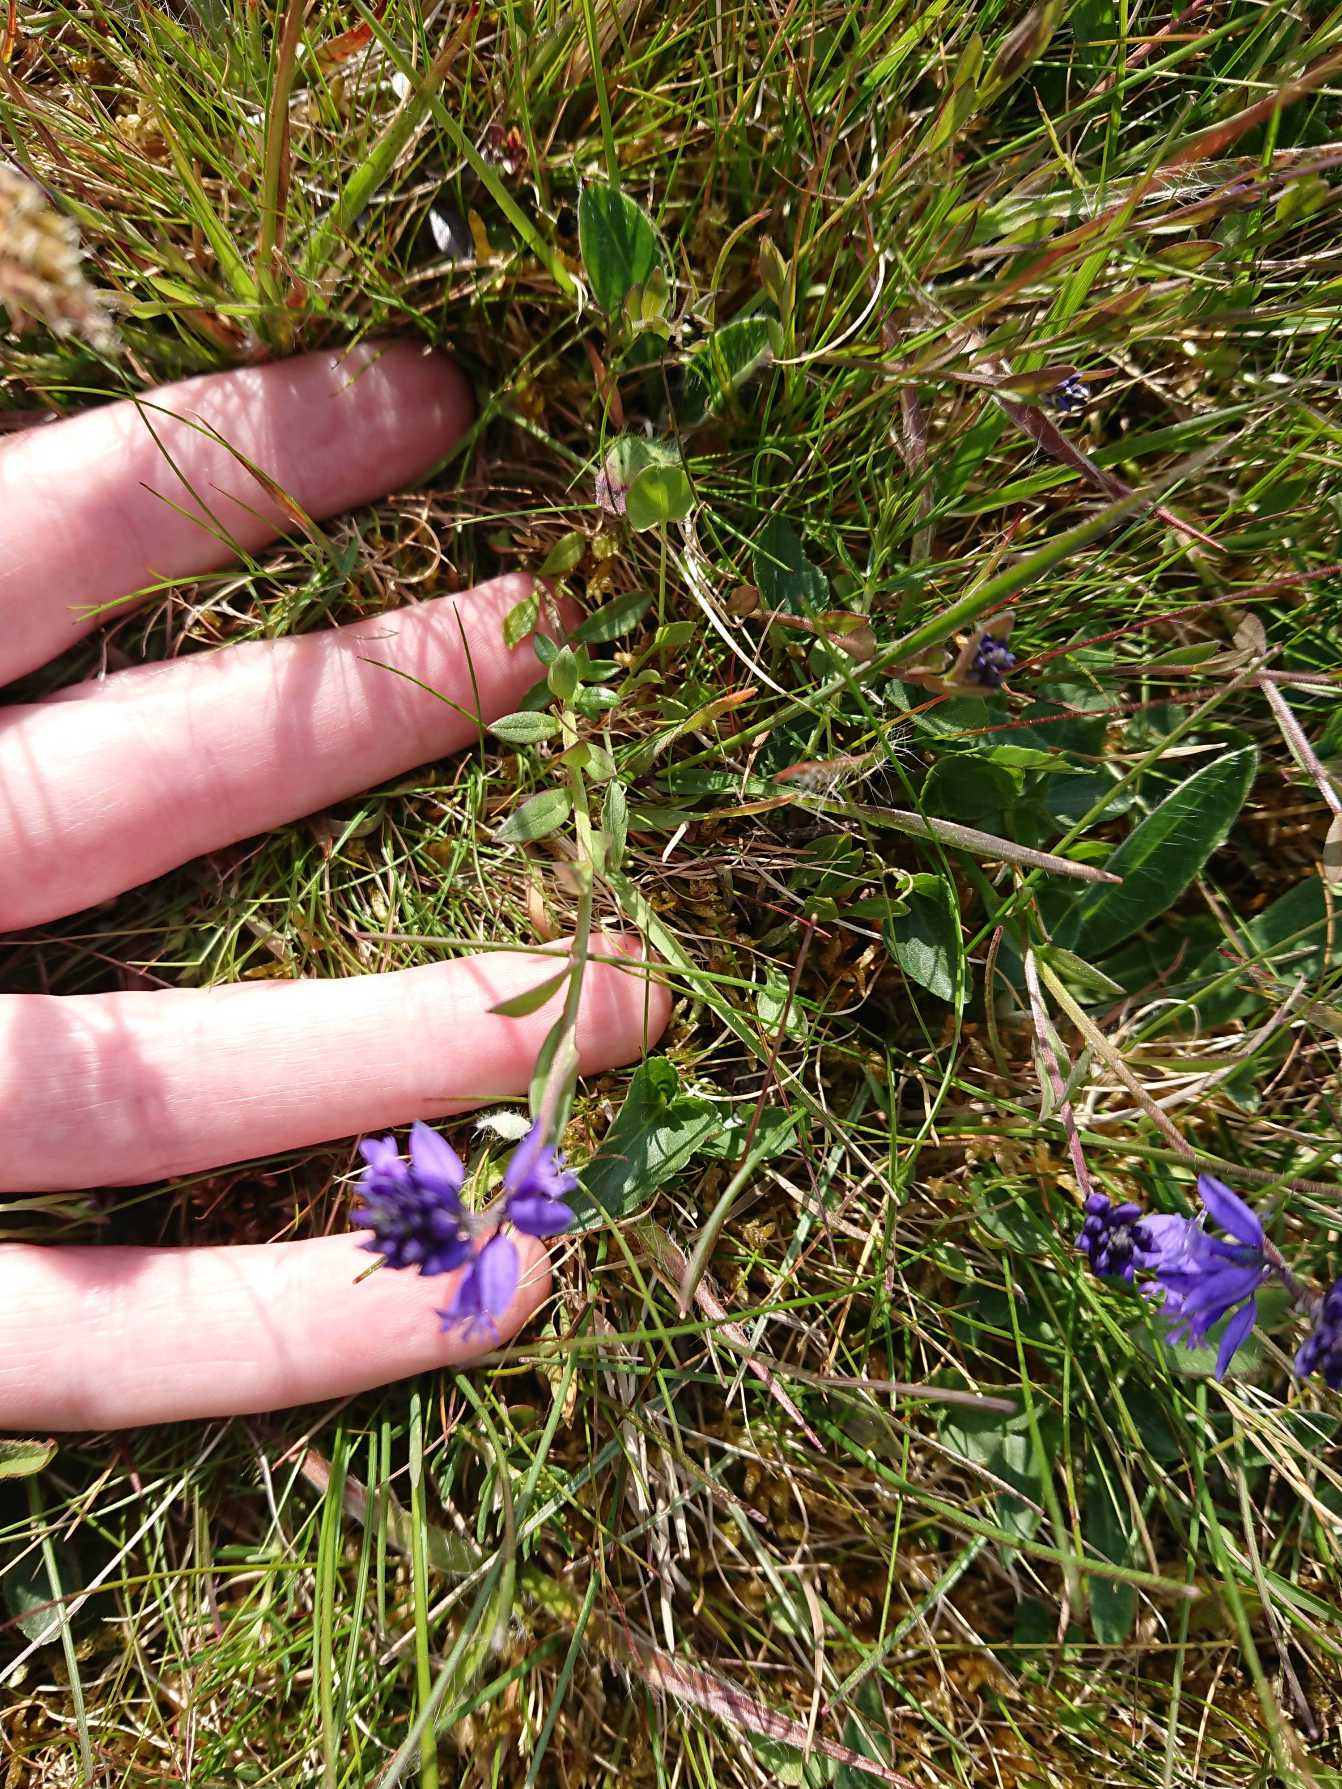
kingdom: Plantae
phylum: Tracheophyta
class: Magnoliopsida
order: Fabales
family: Polygalaceae
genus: Polygala
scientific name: Polygala vulgaris
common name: Almindelig mælkeurt
